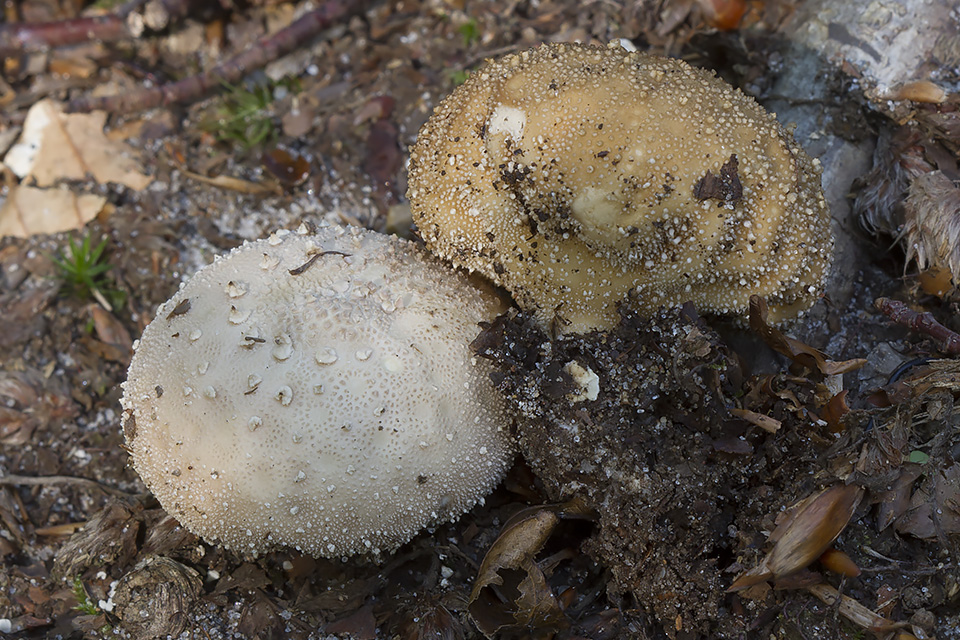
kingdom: Fungi
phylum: Basidiomycota
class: Agaricomycetes
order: Agaricales
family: Lycoperdaceae
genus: Lycoperdon
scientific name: Lycoperdon perlatum
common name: krystal-støvbold
